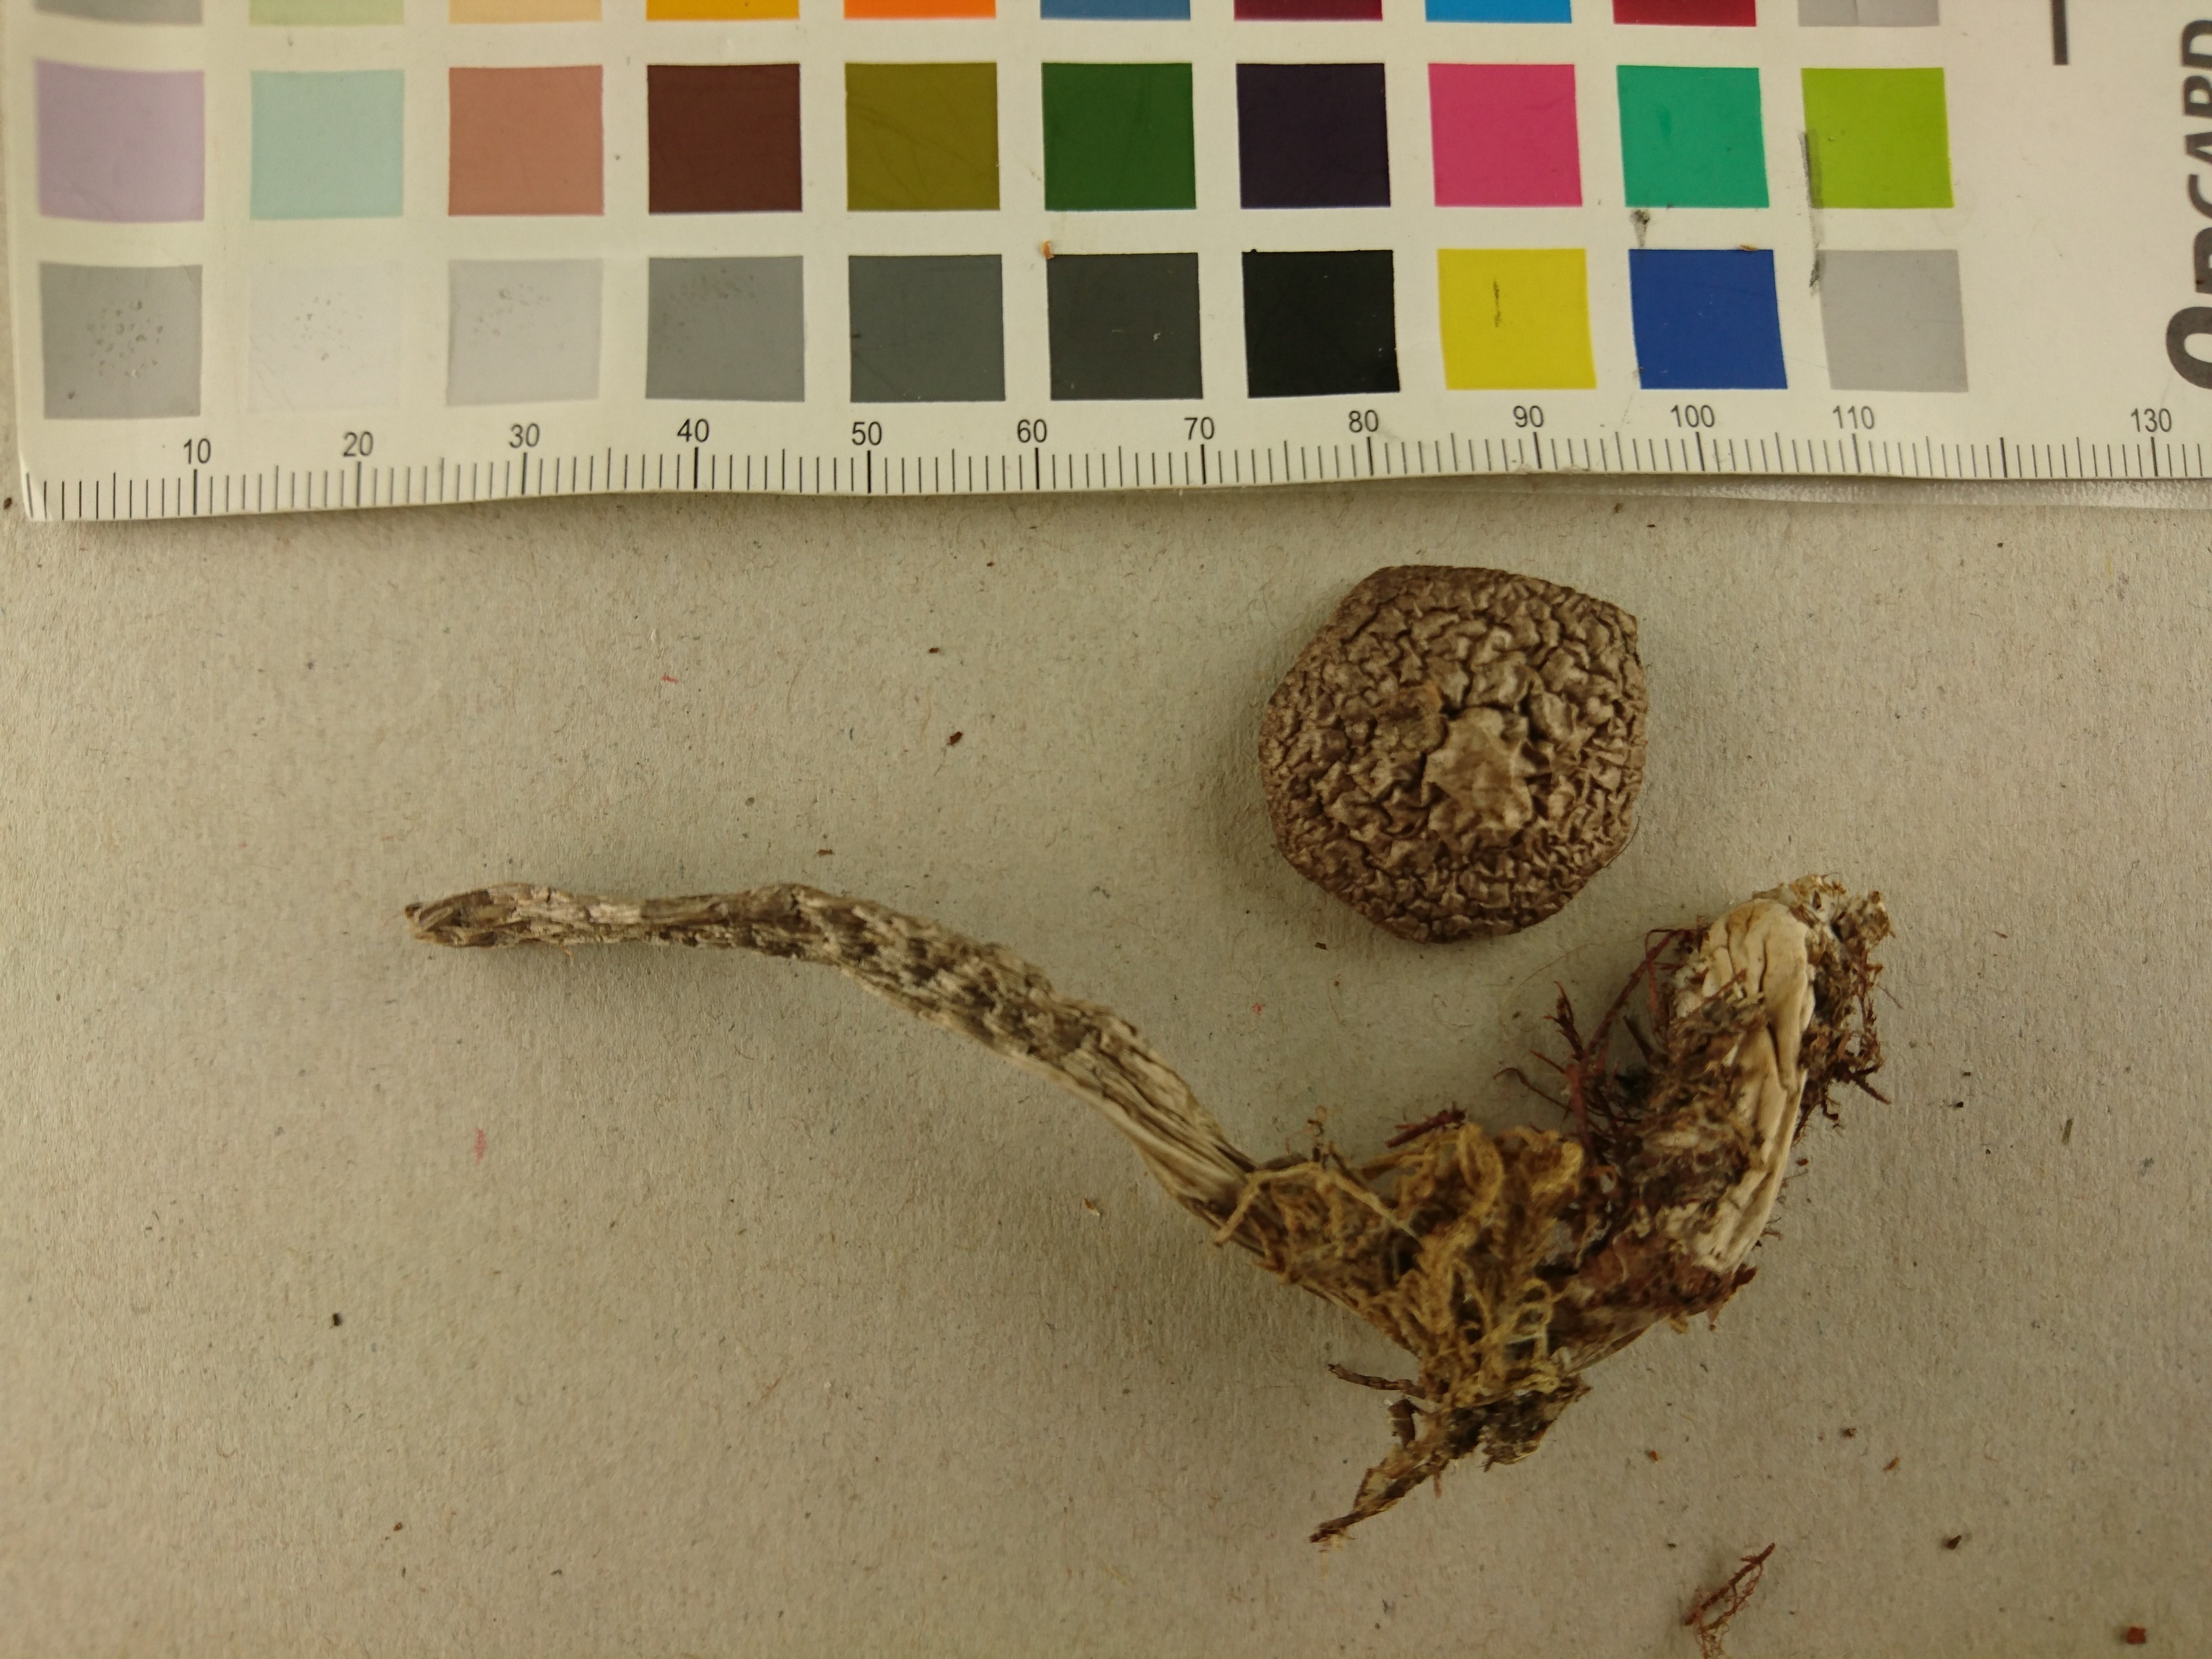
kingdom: Fungi
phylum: Basidiomycota
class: Agaricomycetes
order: Agaricales
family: Cortinariaceae
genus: Cortinarius
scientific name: Cortinarius ionophyllus
